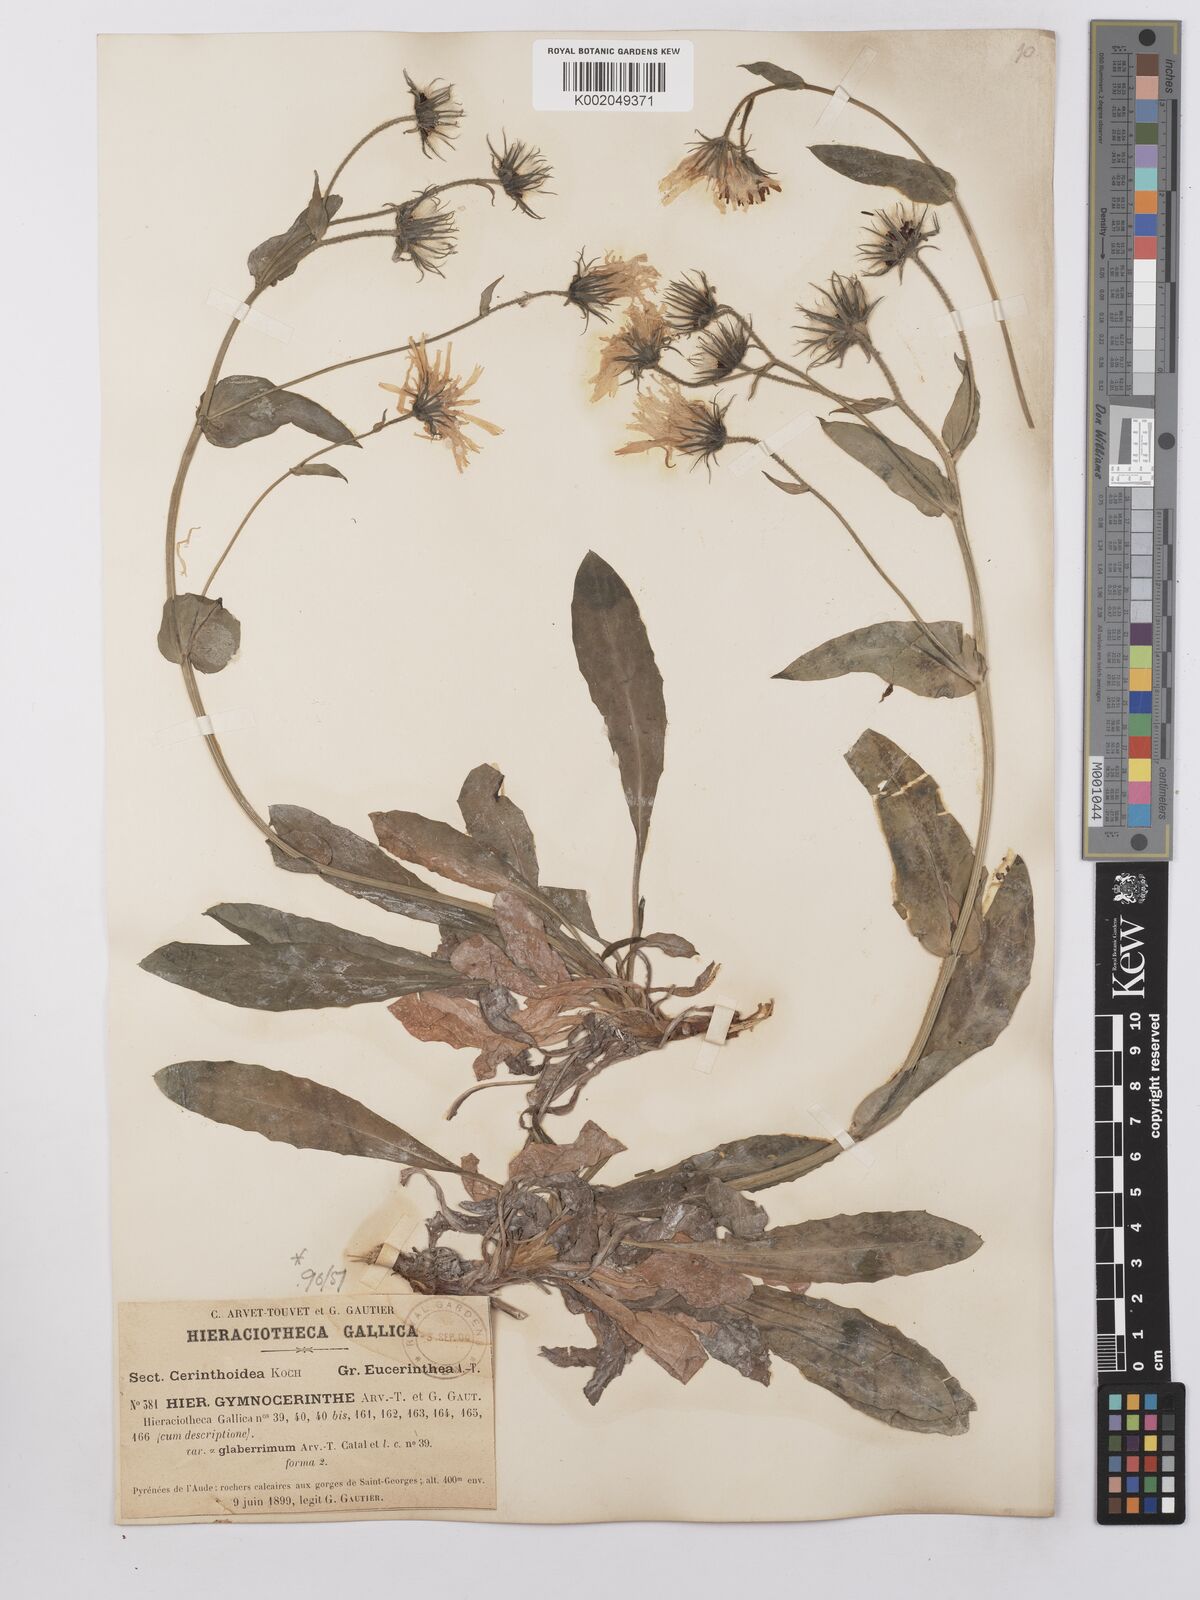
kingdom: Plantae
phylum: Tracheophyta
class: Magnoliopsida
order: Asterales
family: Asteraceae
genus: Hieracium
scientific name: Hieracium cerinthoides
